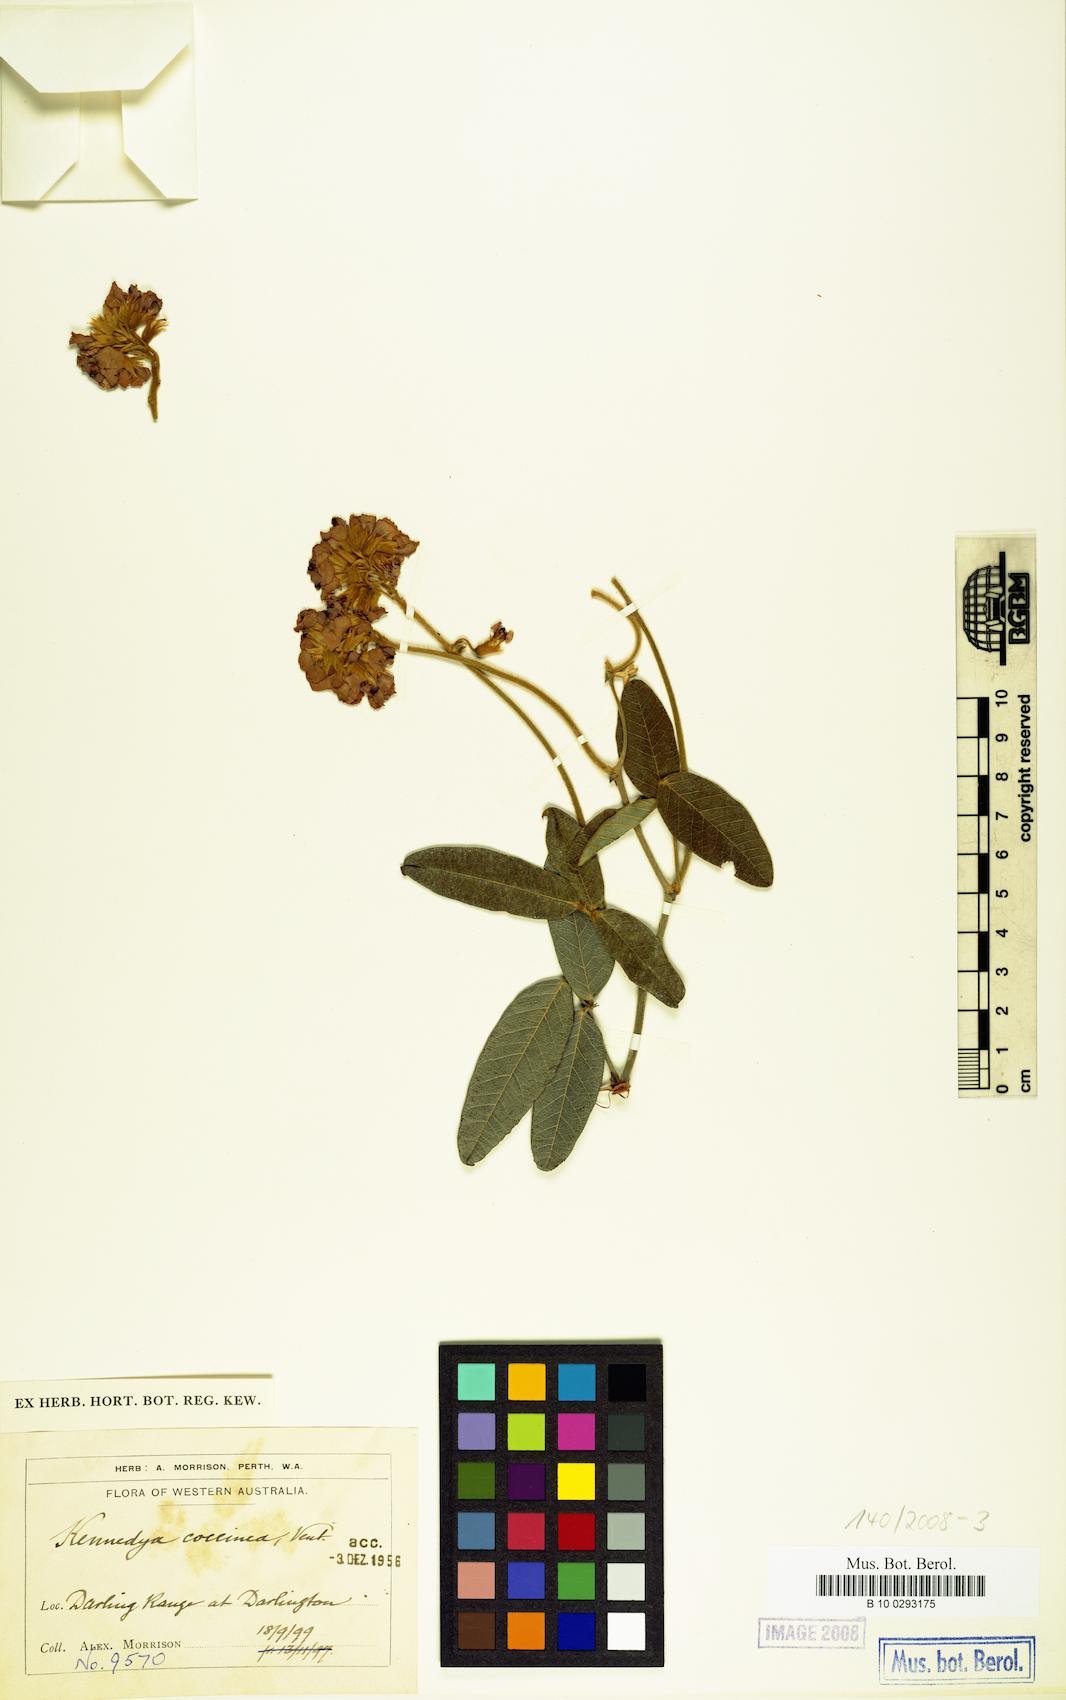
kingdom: Plantae
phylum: Tracheophyta
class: Magnoliopsida
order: Fabales
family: Fabaceae
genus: Kennedia
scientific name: Kennedia coccinea
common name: Coralvine
